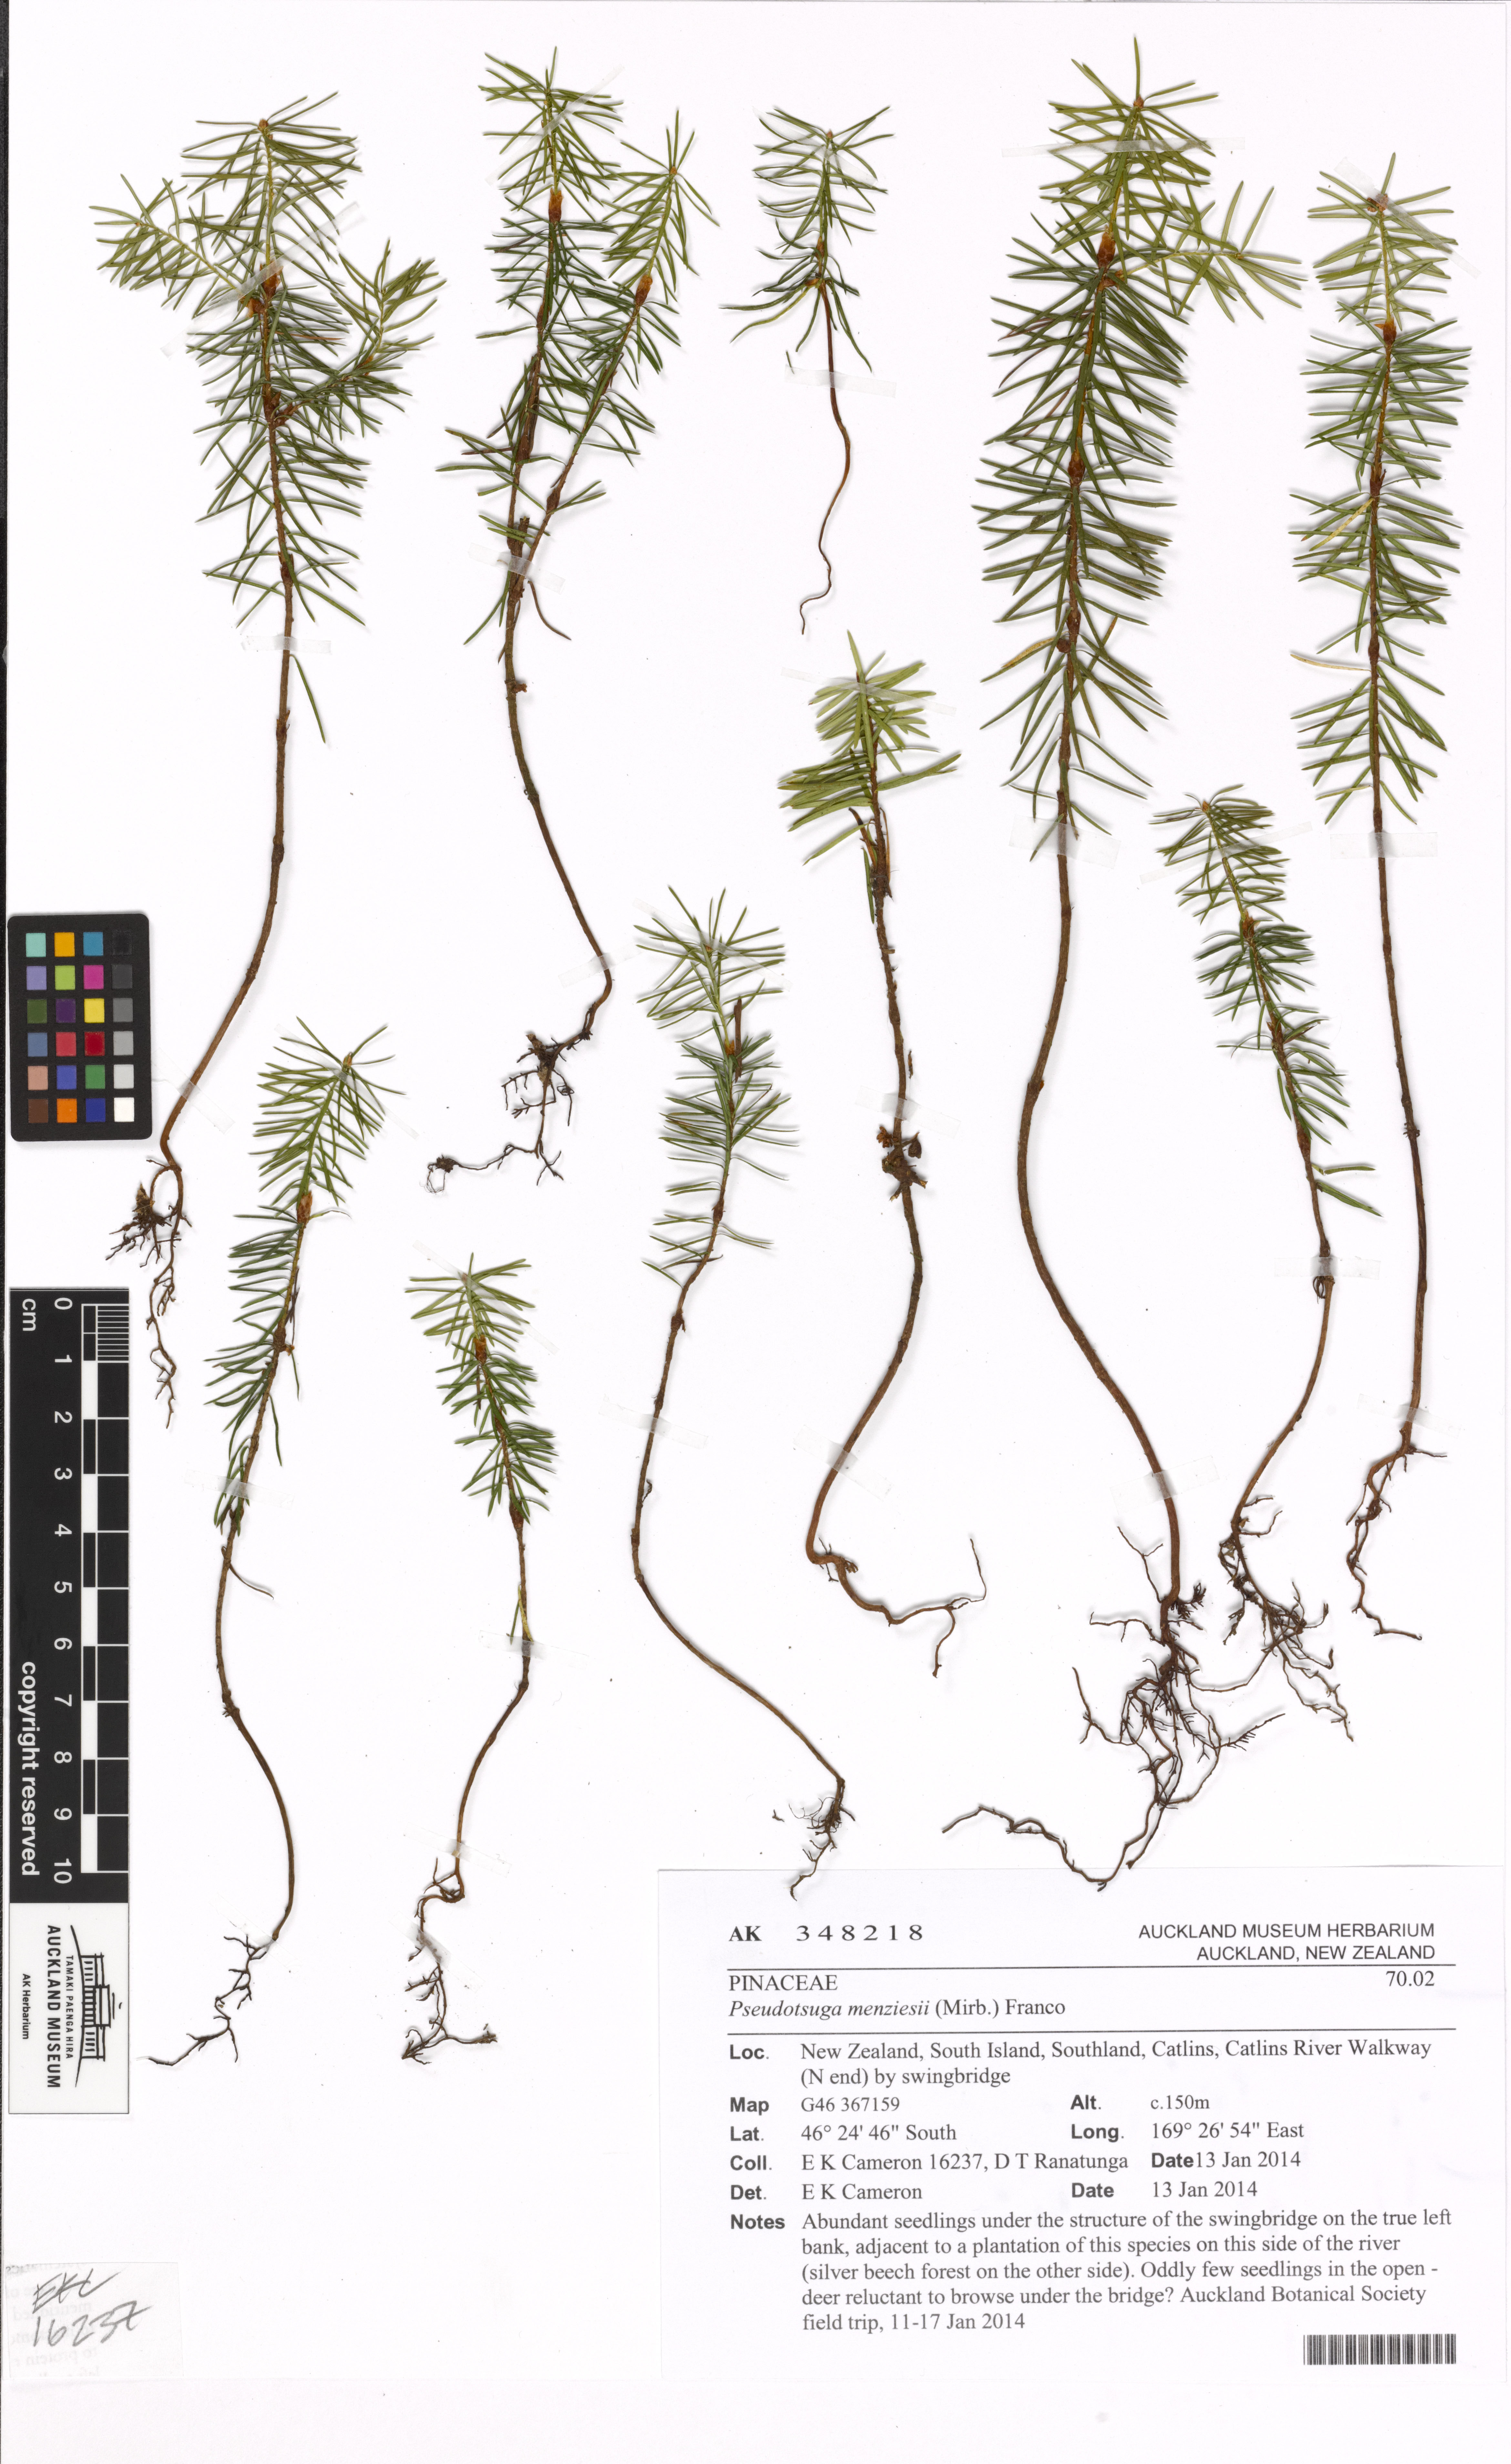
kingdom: Plantae
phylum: Tracheophyta
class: Pinopsida
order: Pinales
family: Pinaceae
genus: Pseudotsuga
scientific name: Pseudotsuga menziesii
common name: Douglas fir
